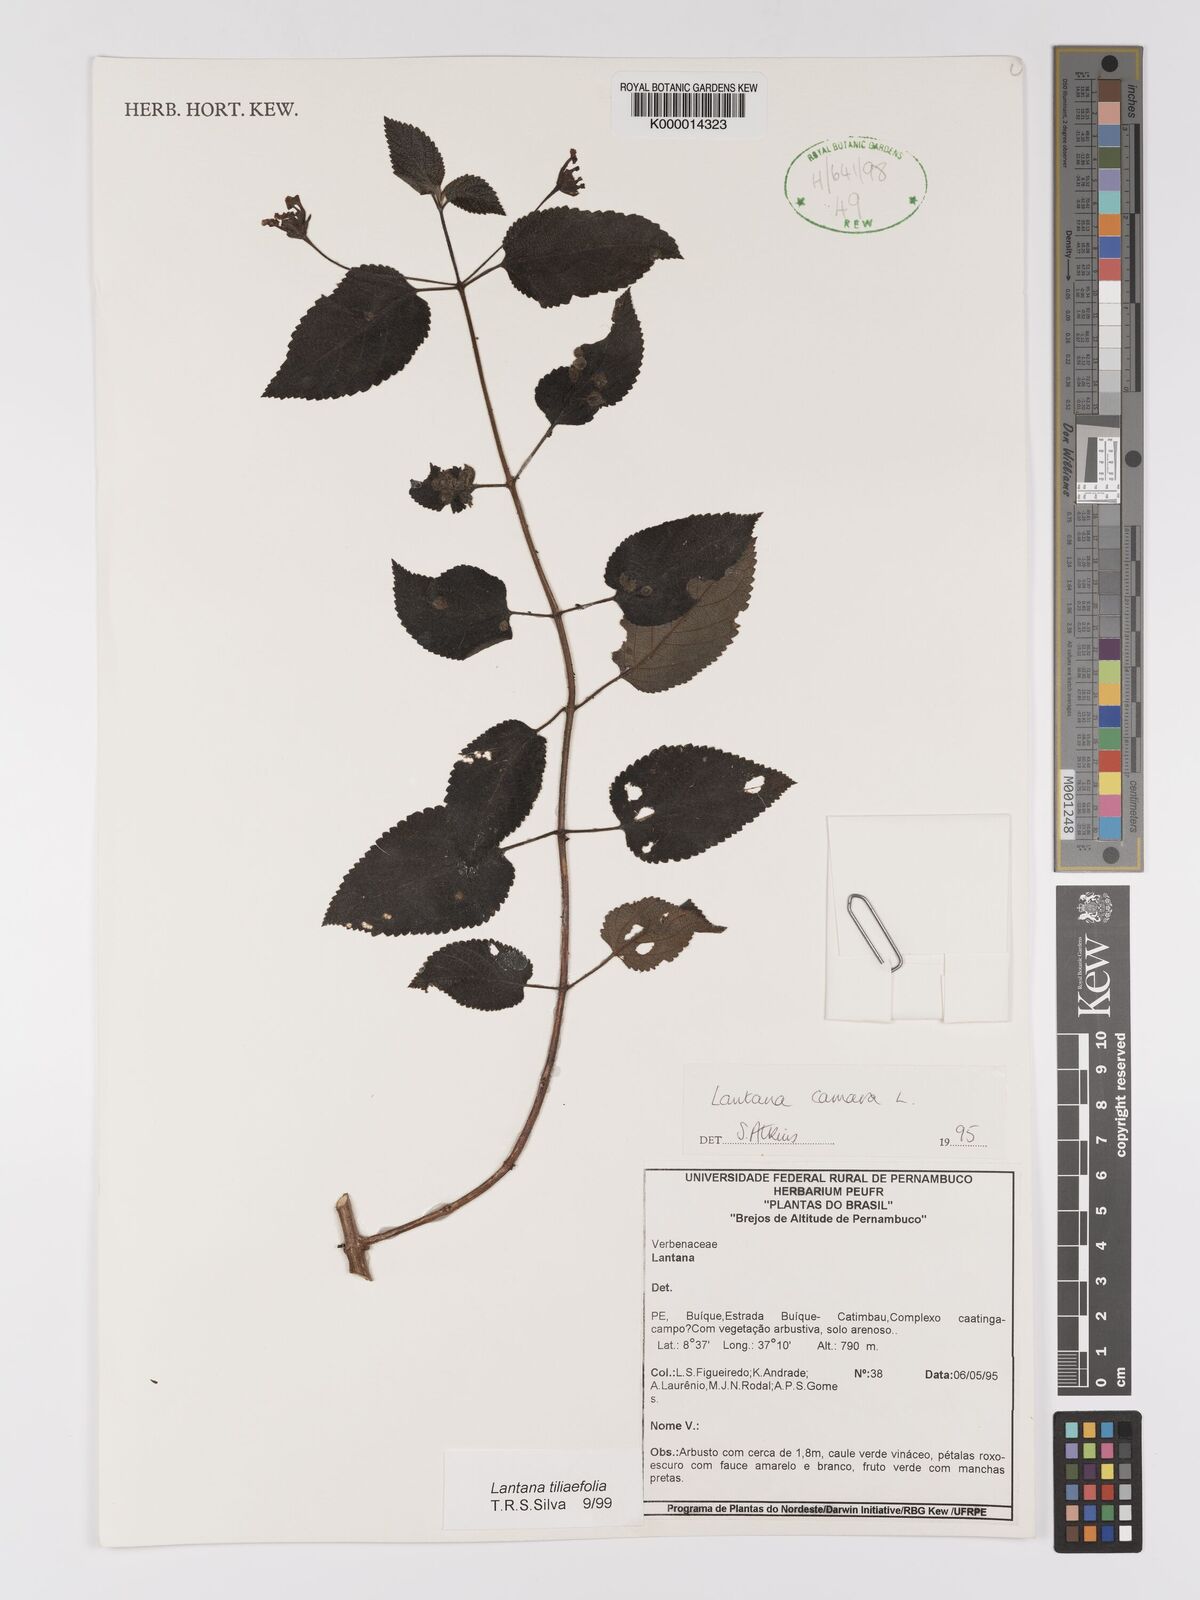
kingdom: Plantae
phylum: Tracheophyta
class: Magnoliopsida
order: Lamiales
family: Verbenaceae
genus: Lantana
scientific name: Lantana
